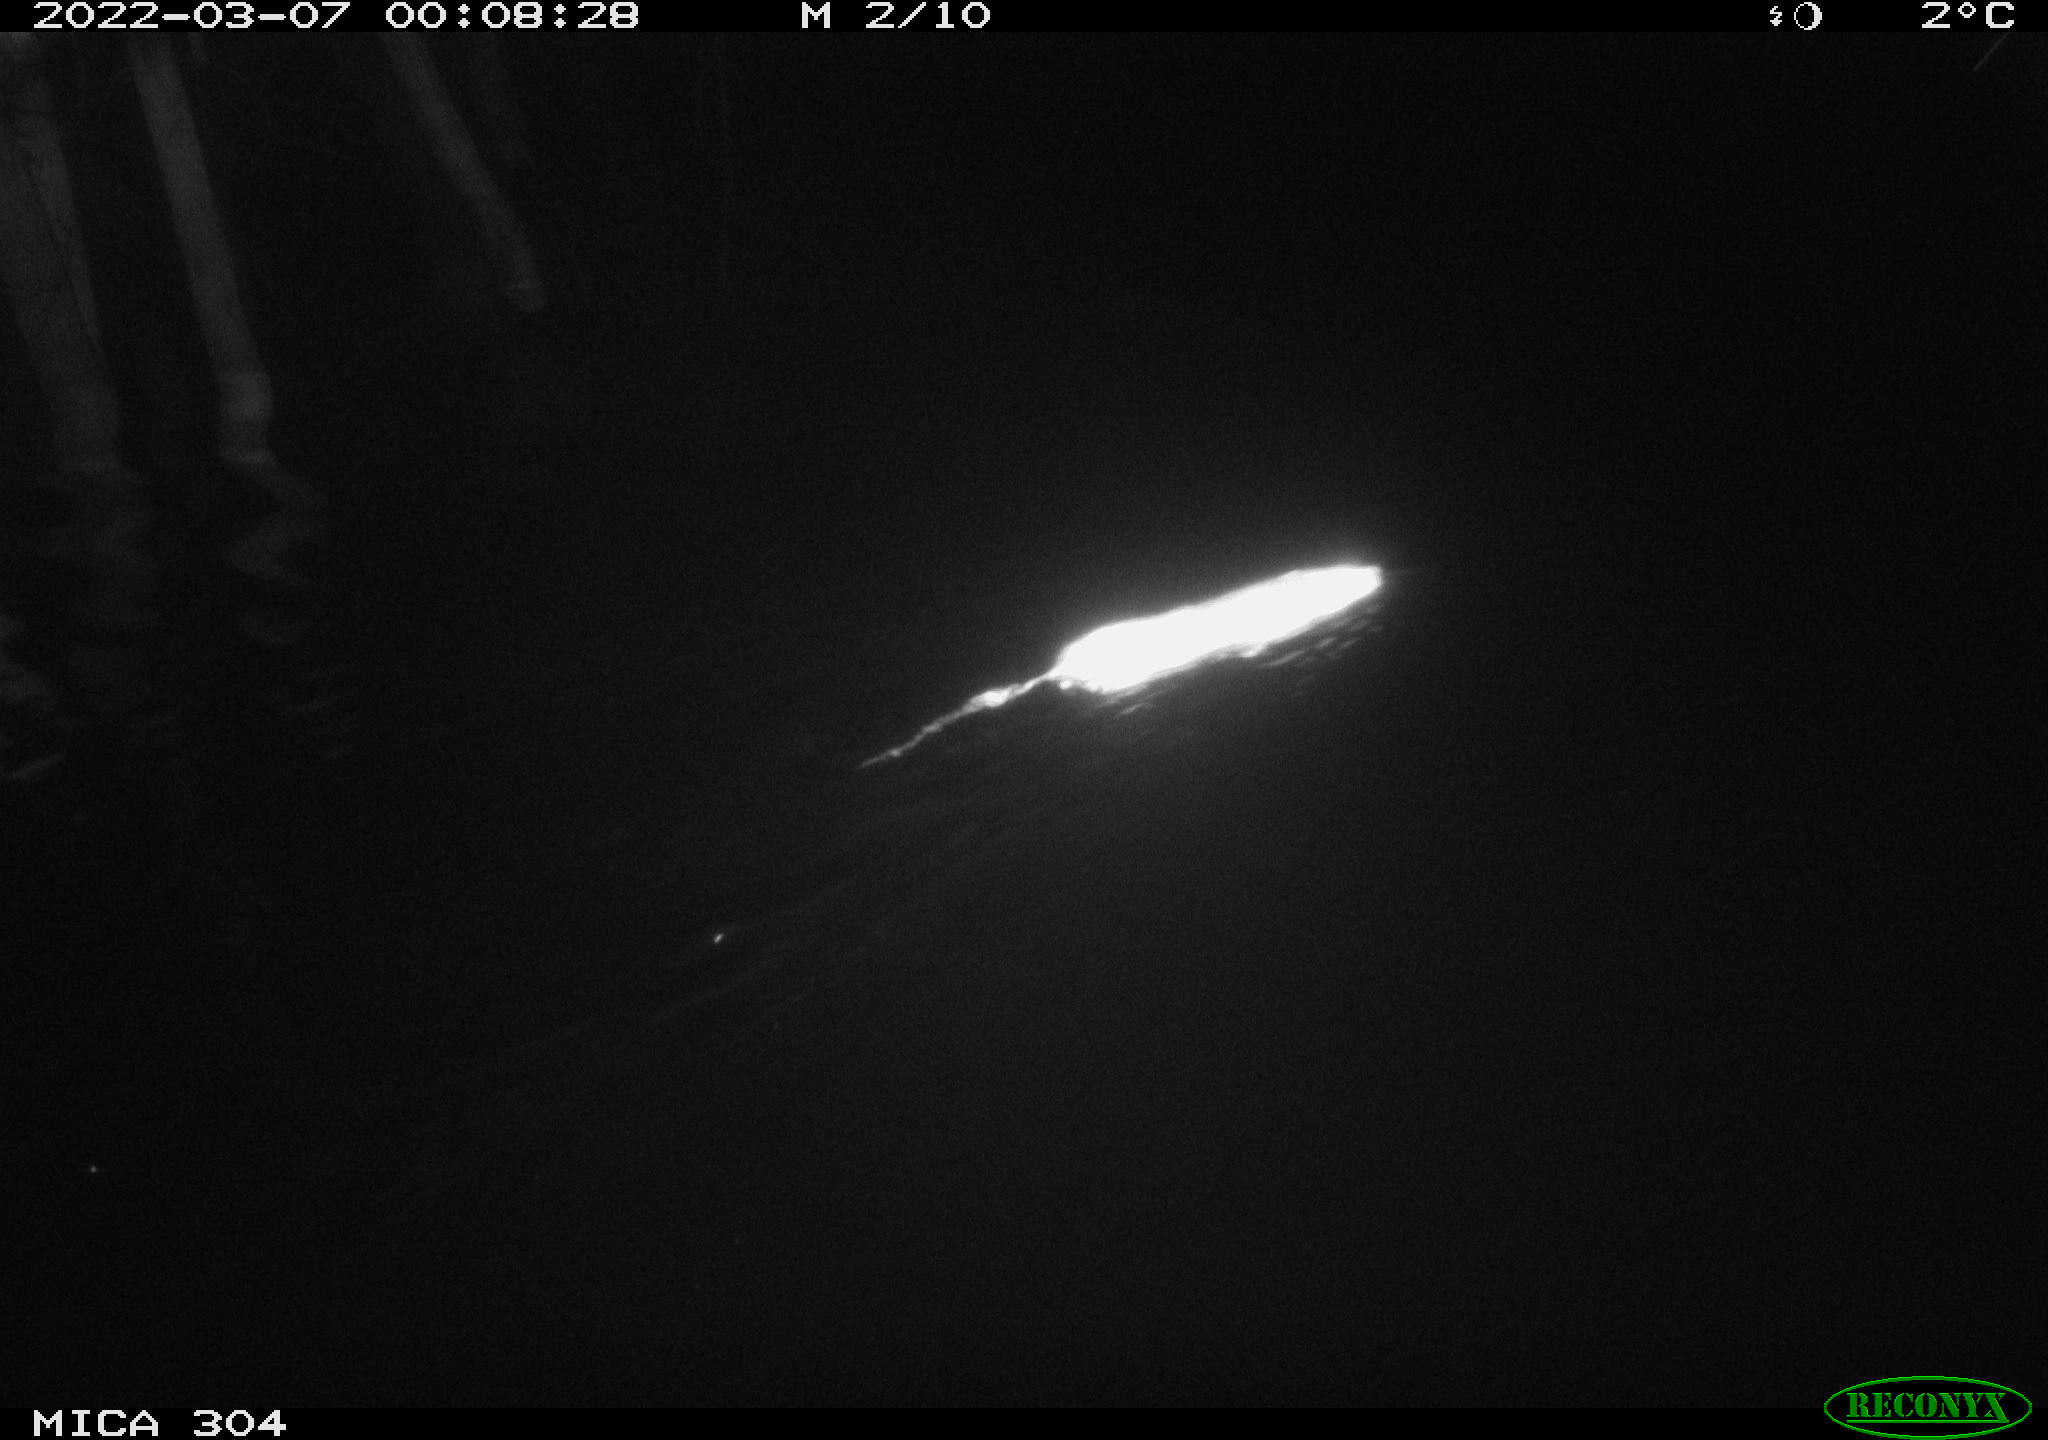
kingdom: Animalia
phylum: Chordata
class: Mammalia
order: Rodentia
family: Muridae
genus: Rattus
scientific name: Rattus norvegicus
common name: Brown rat
